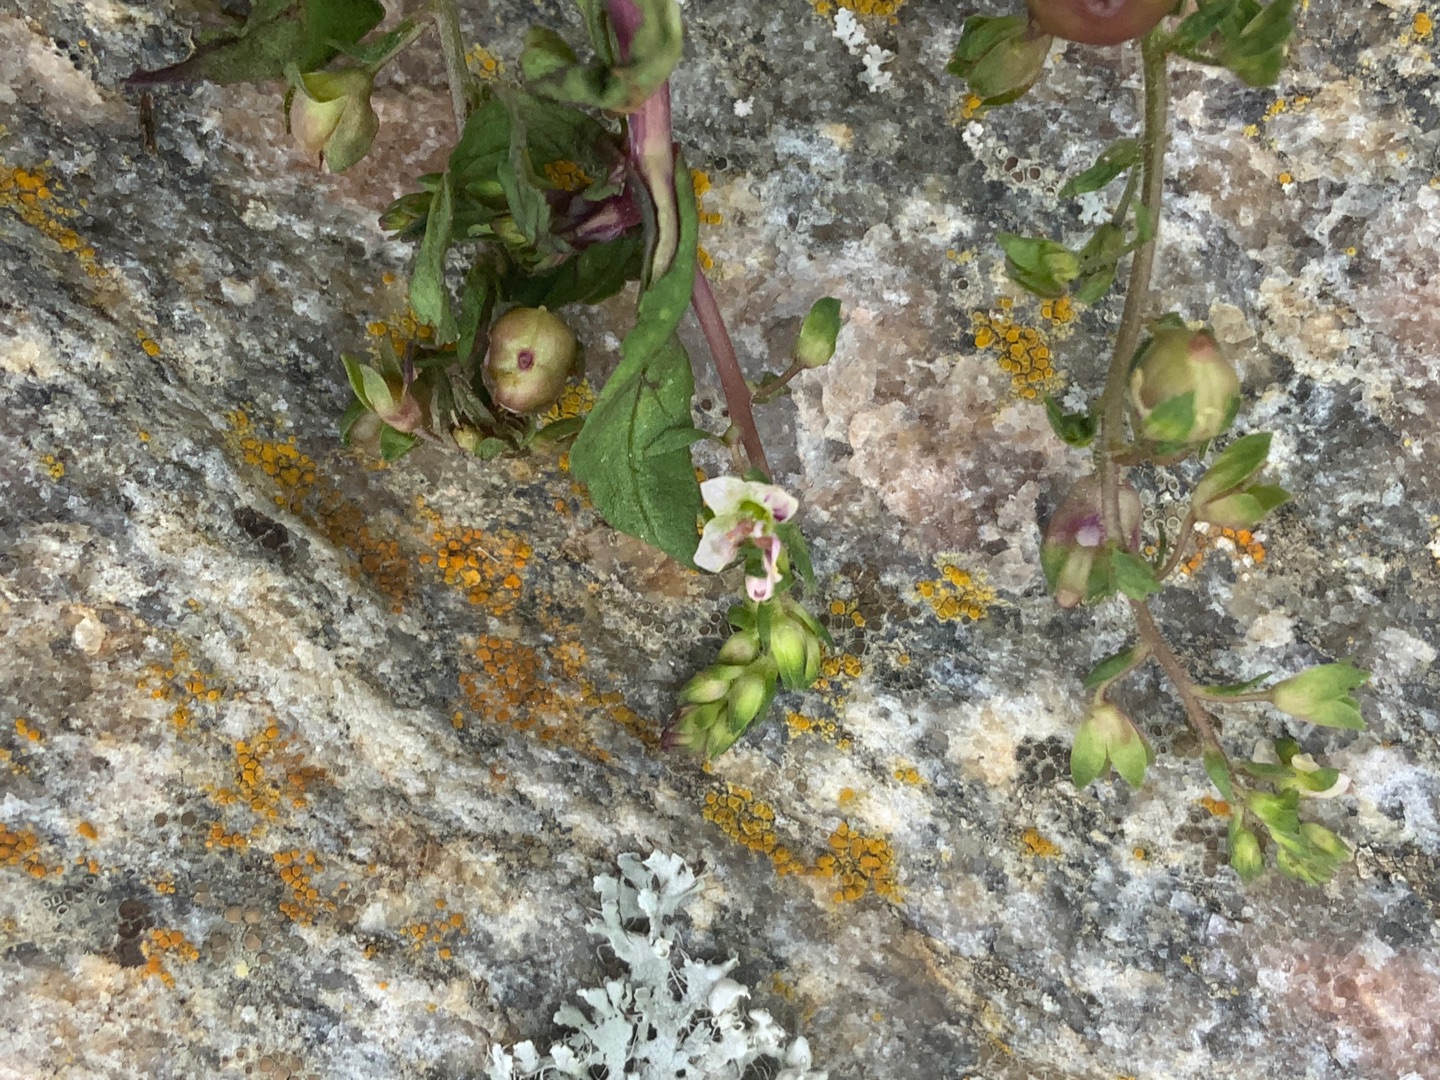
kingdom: Plantae
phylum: Tracheophyta
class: Magnoliopsida
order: Lamiales
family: Plantaginaceae
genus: Veronica
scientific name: Veronica catenata
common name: Vand-ærenpris
